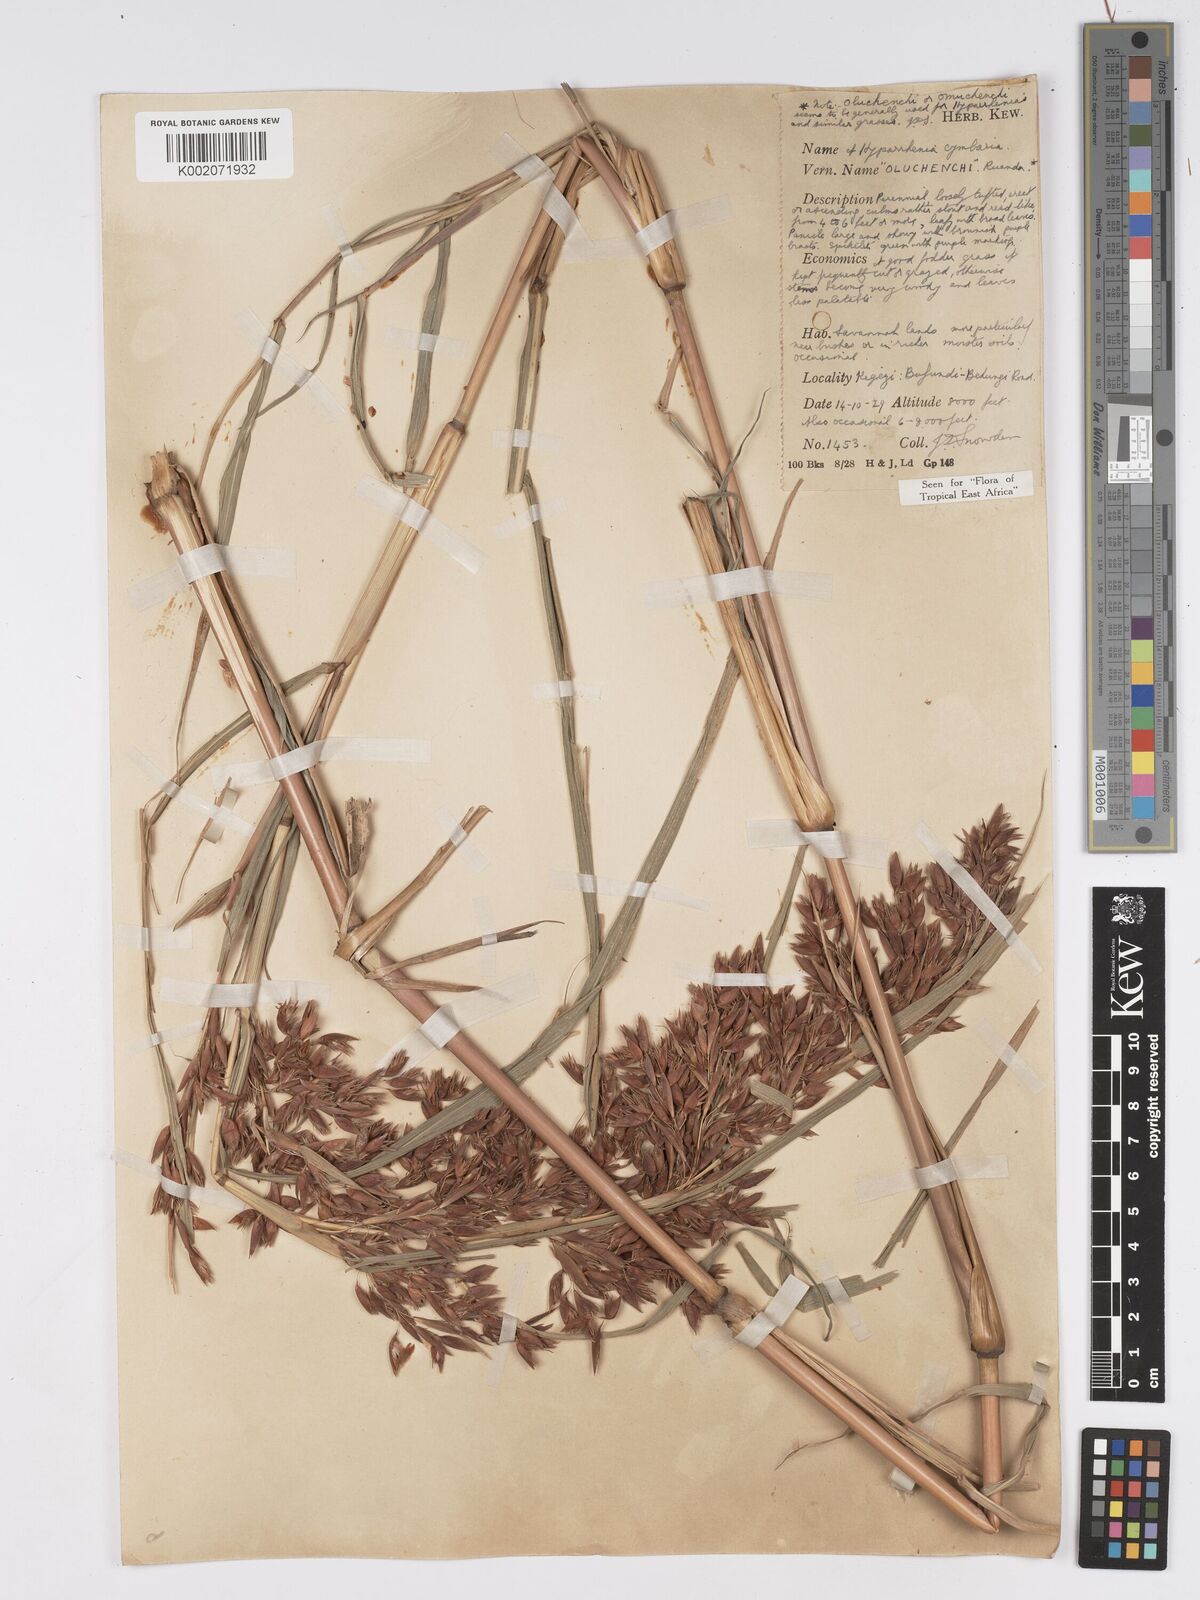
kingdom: Plantae
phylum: Tracheophyta
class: Liliopsida
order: Poales
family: Poaceae
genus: Hyparrhenia
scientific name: Hyparrhenia cymbaria
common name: Boat thatching grass
